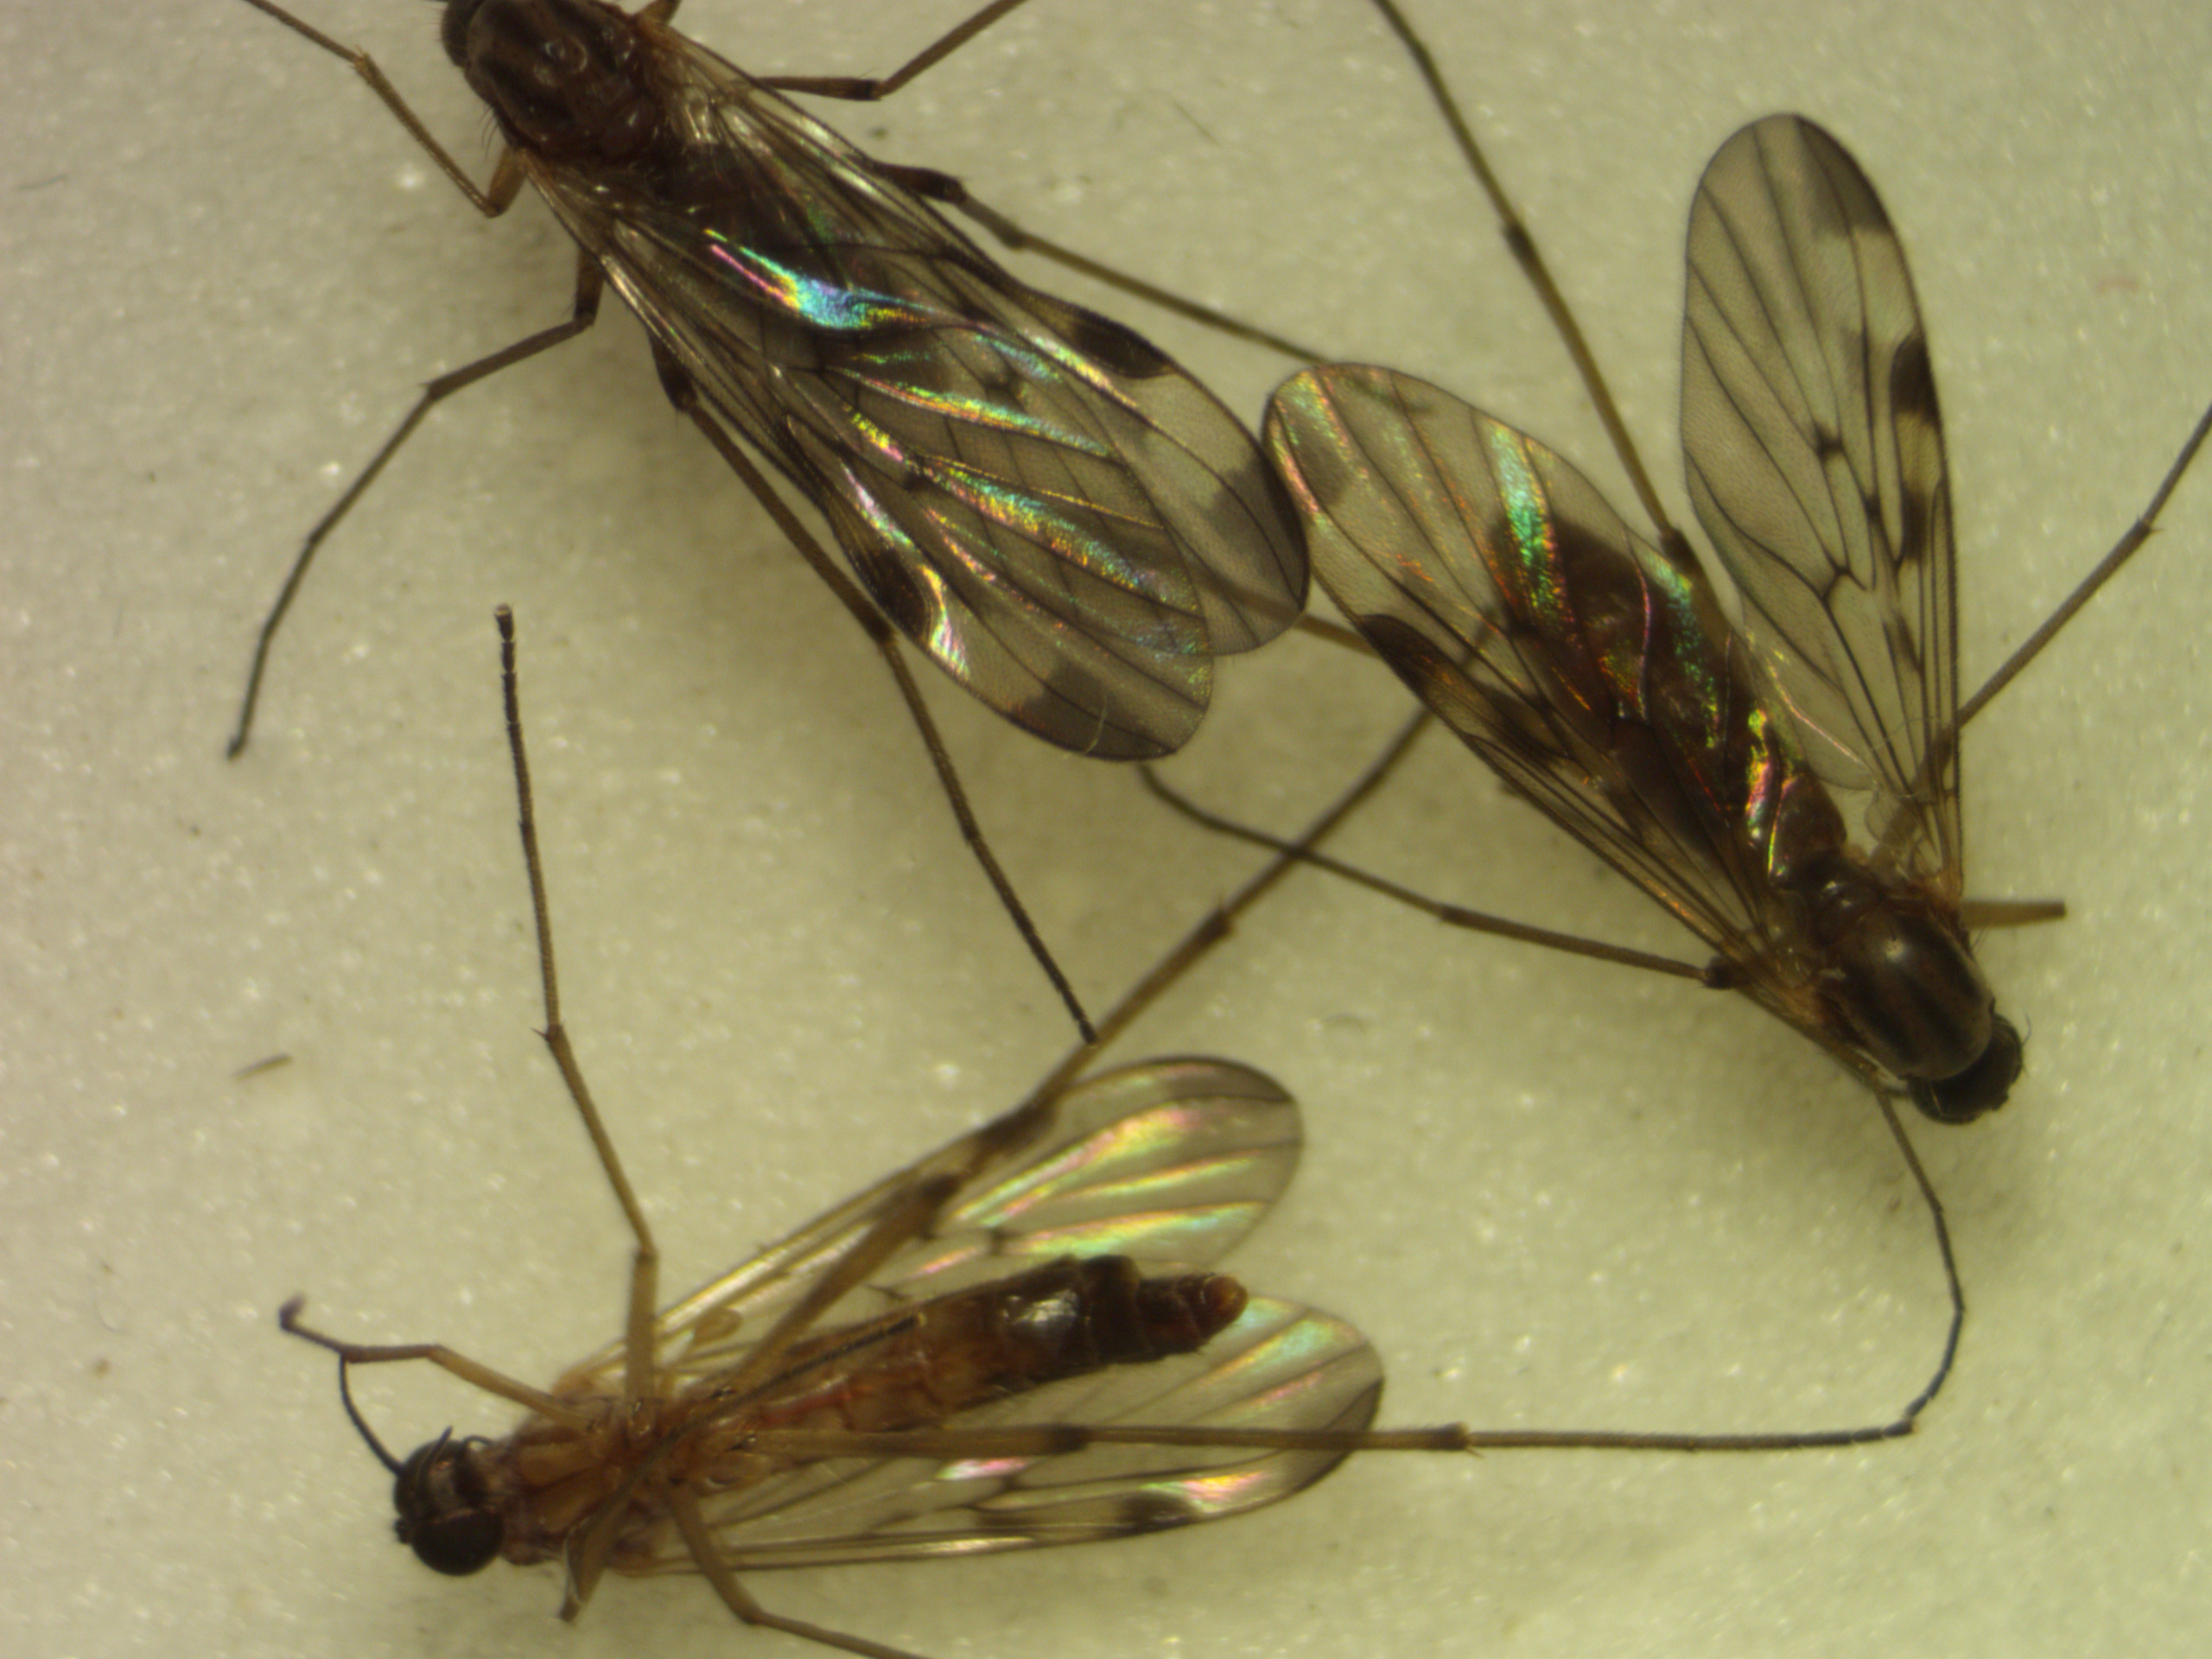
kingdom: Animalia
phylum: Arthropoda
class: Insecta
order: Diptera
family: Anisopodidae
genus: Sylvicola
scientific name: Sylvicola cinctus
